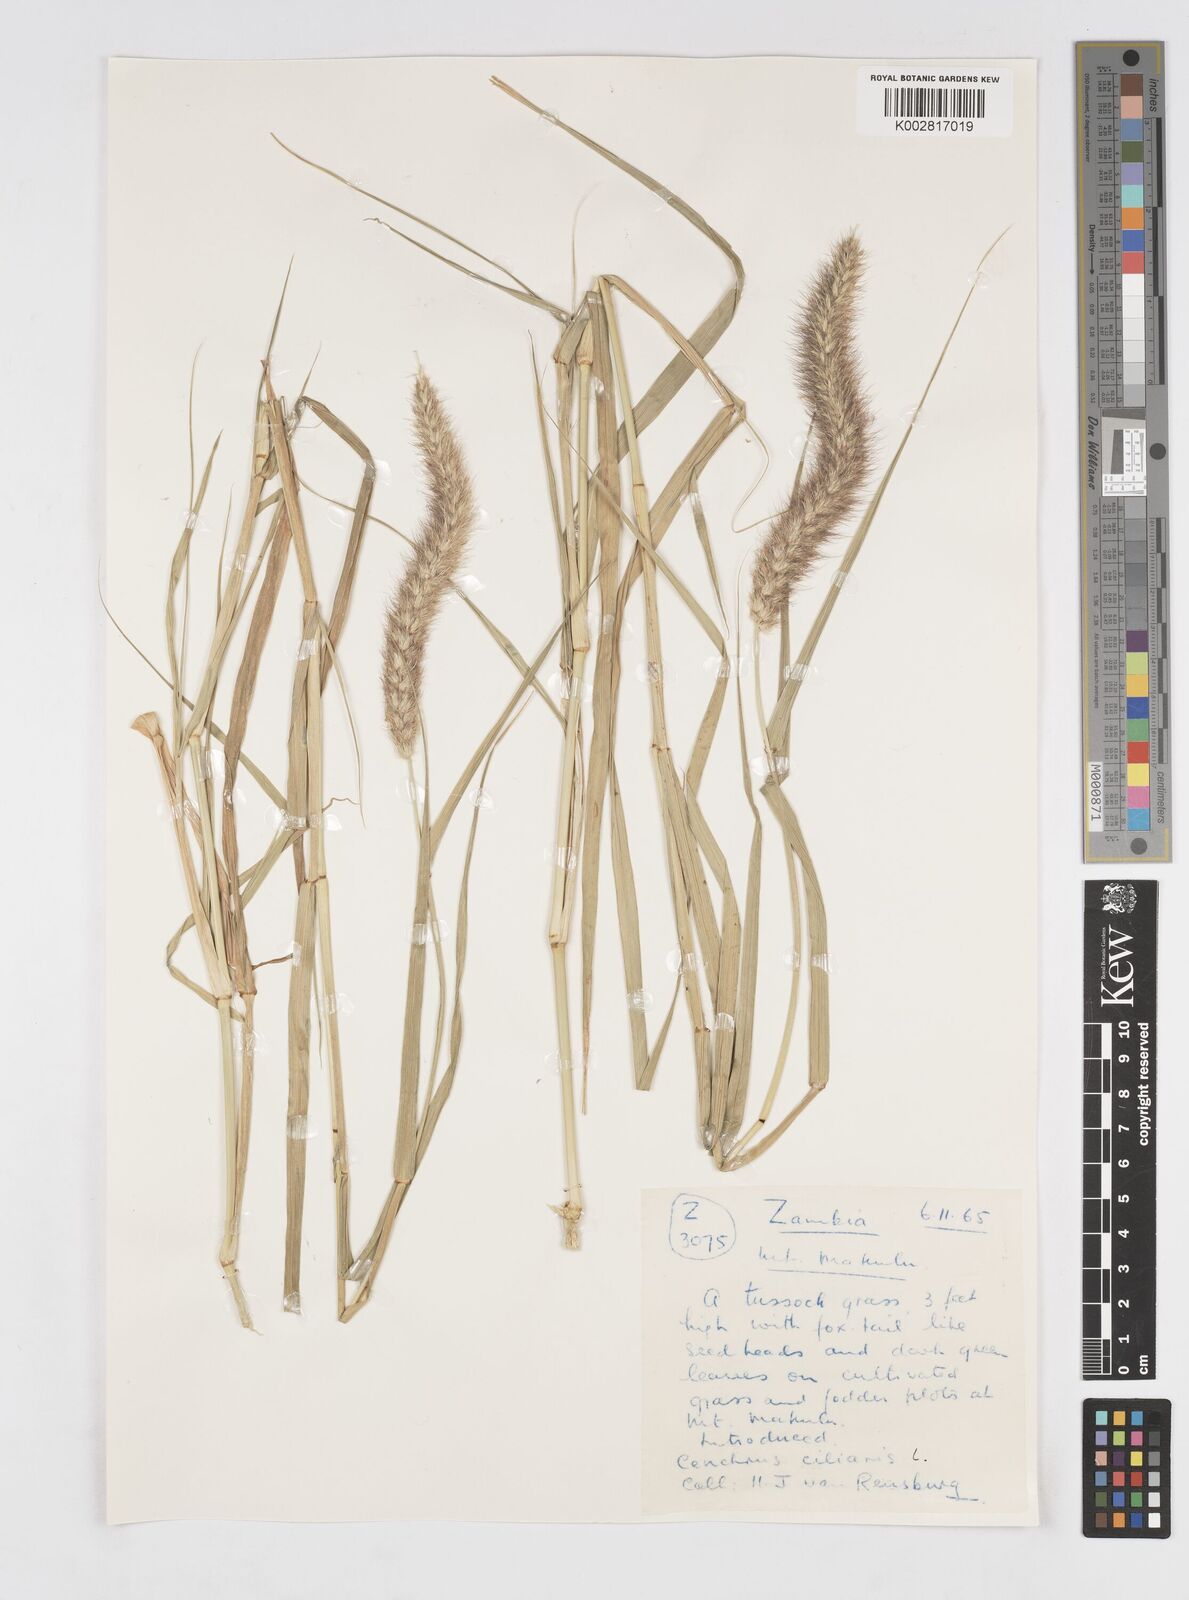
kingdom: Plantae
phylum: Tracheophyta
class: Liliopsida
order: Poales
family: Poaceae
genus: Cenchrus
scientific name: Cenchrus ciliaris
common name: Buffelgrass
